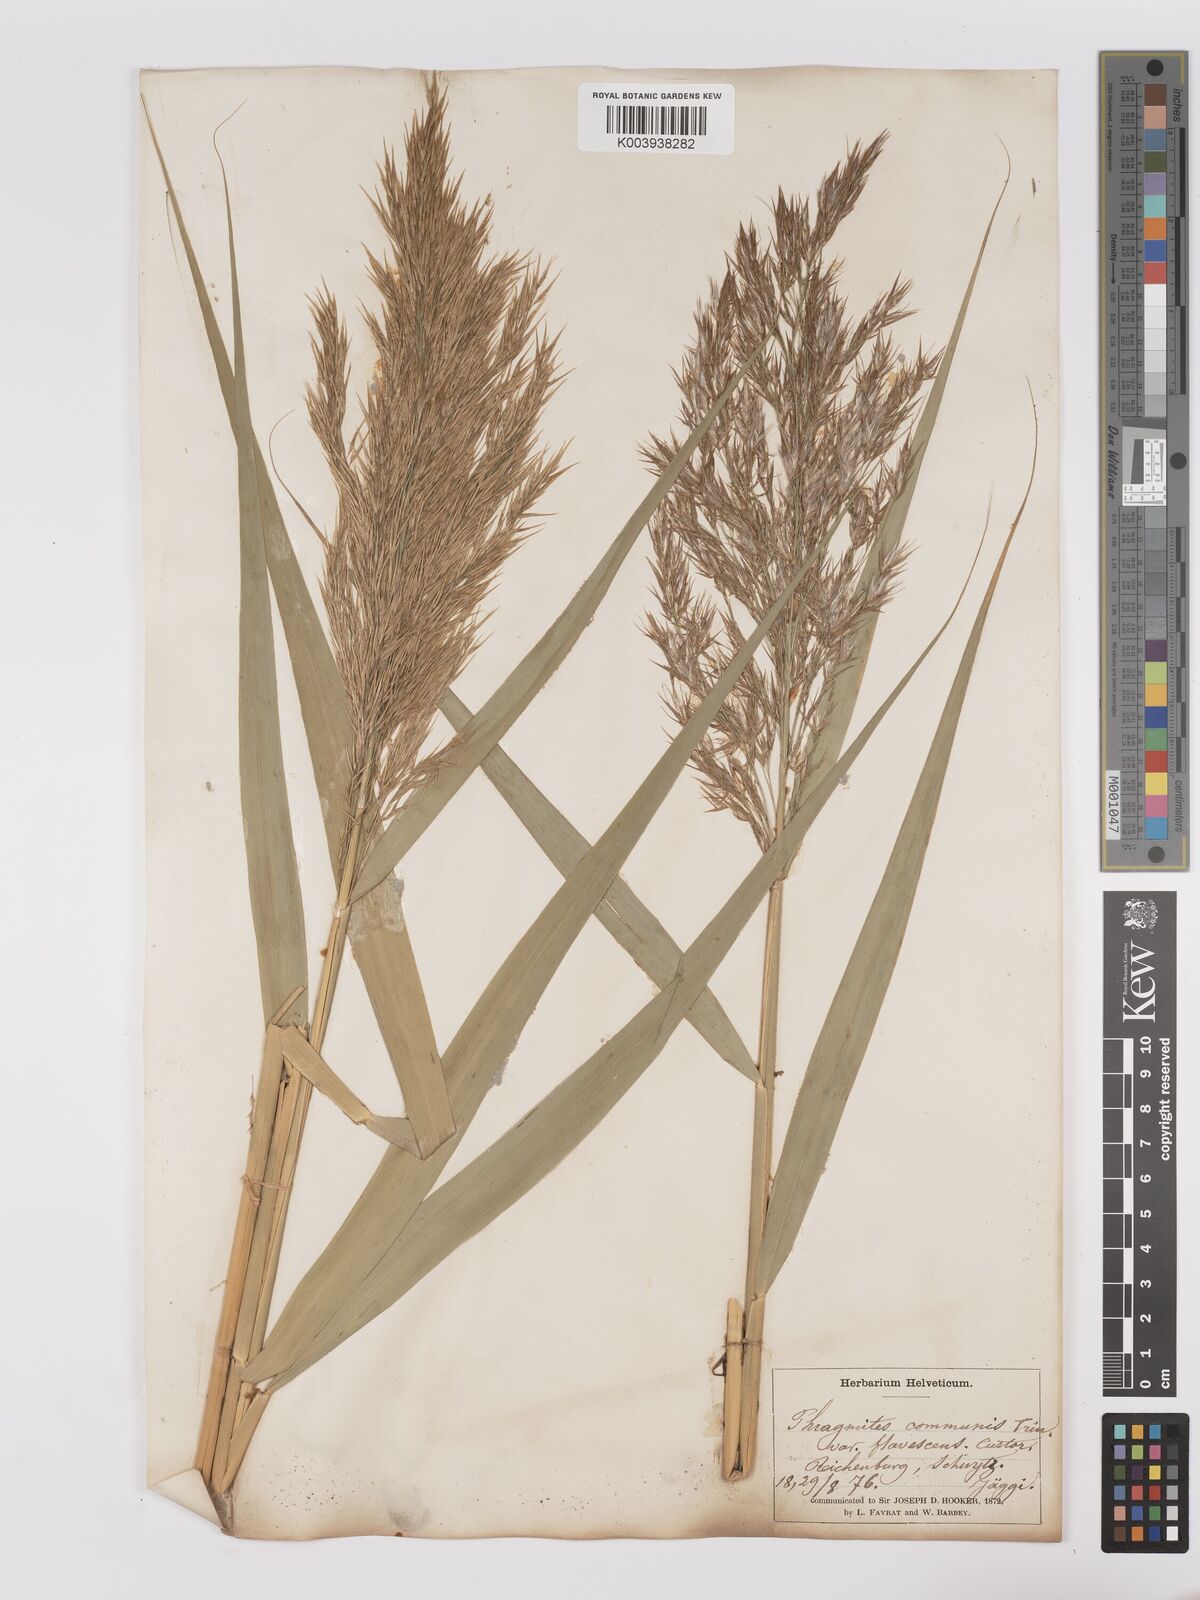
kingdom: Plantae
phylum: Tracheophyta
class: Liliopsida
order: Poales
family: Poaceae
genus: Phragmites
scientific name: Phragmites australis
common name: Common reed
